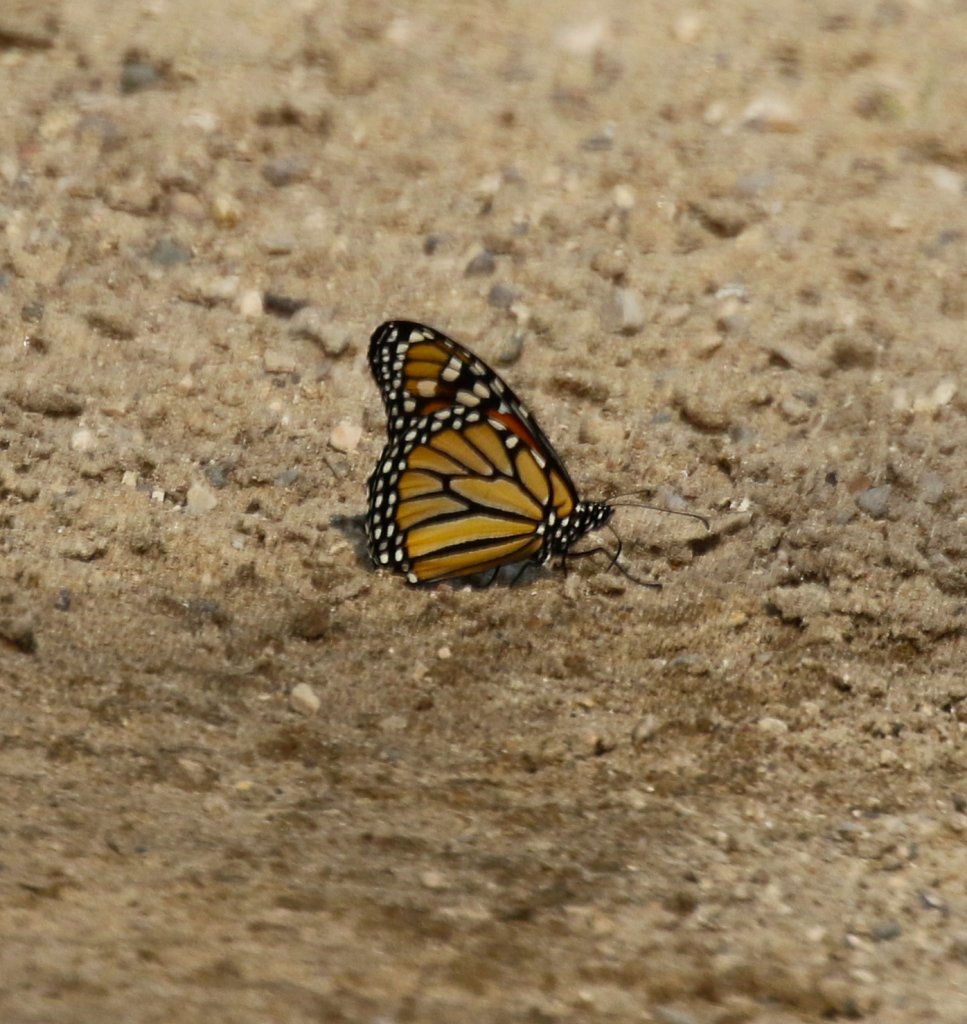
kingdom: Animalia
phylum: Arthropoda
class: Insecta
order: Lepidoptera
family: Nymphalidae
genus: Danaus
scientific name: Danaus plexippus
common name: Monarch
